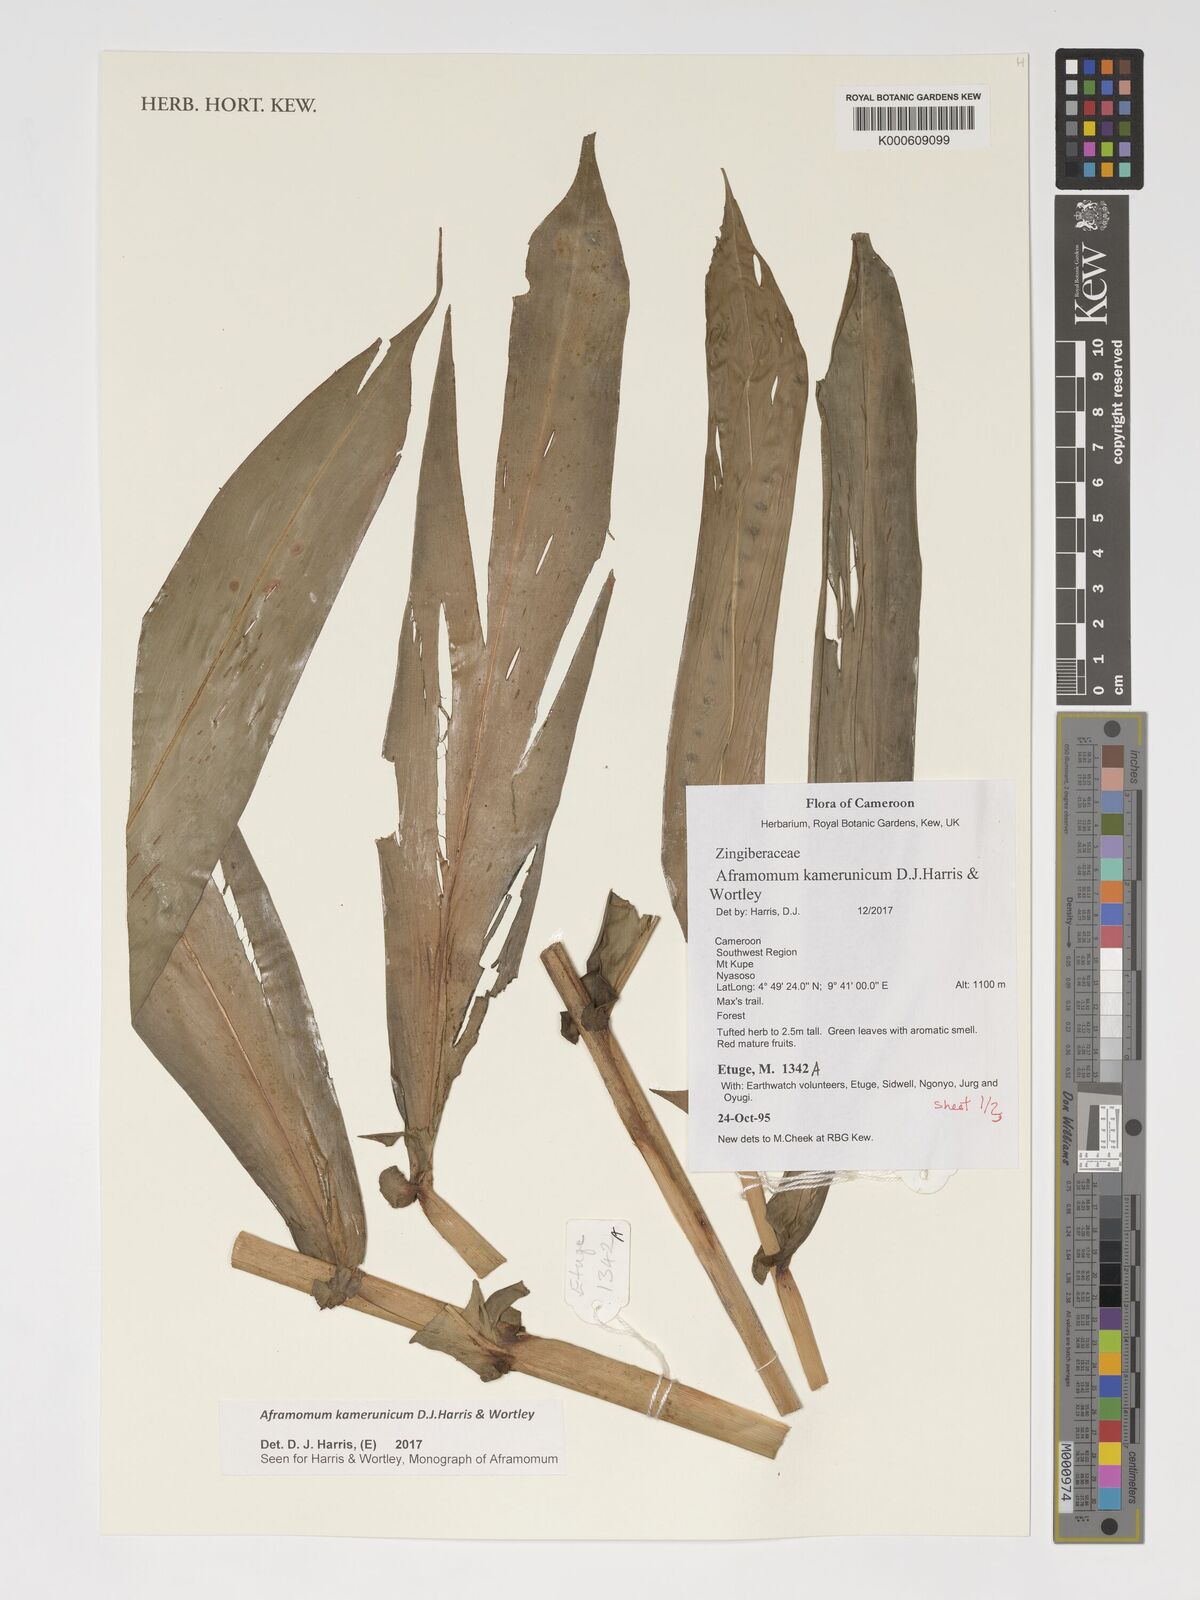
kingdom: Plantae
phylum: Tracheophyta
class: Liliopsida
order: Zingiberales
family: Zingiberaceae
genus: Aframomum
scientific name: Aframomum kamerunicum
